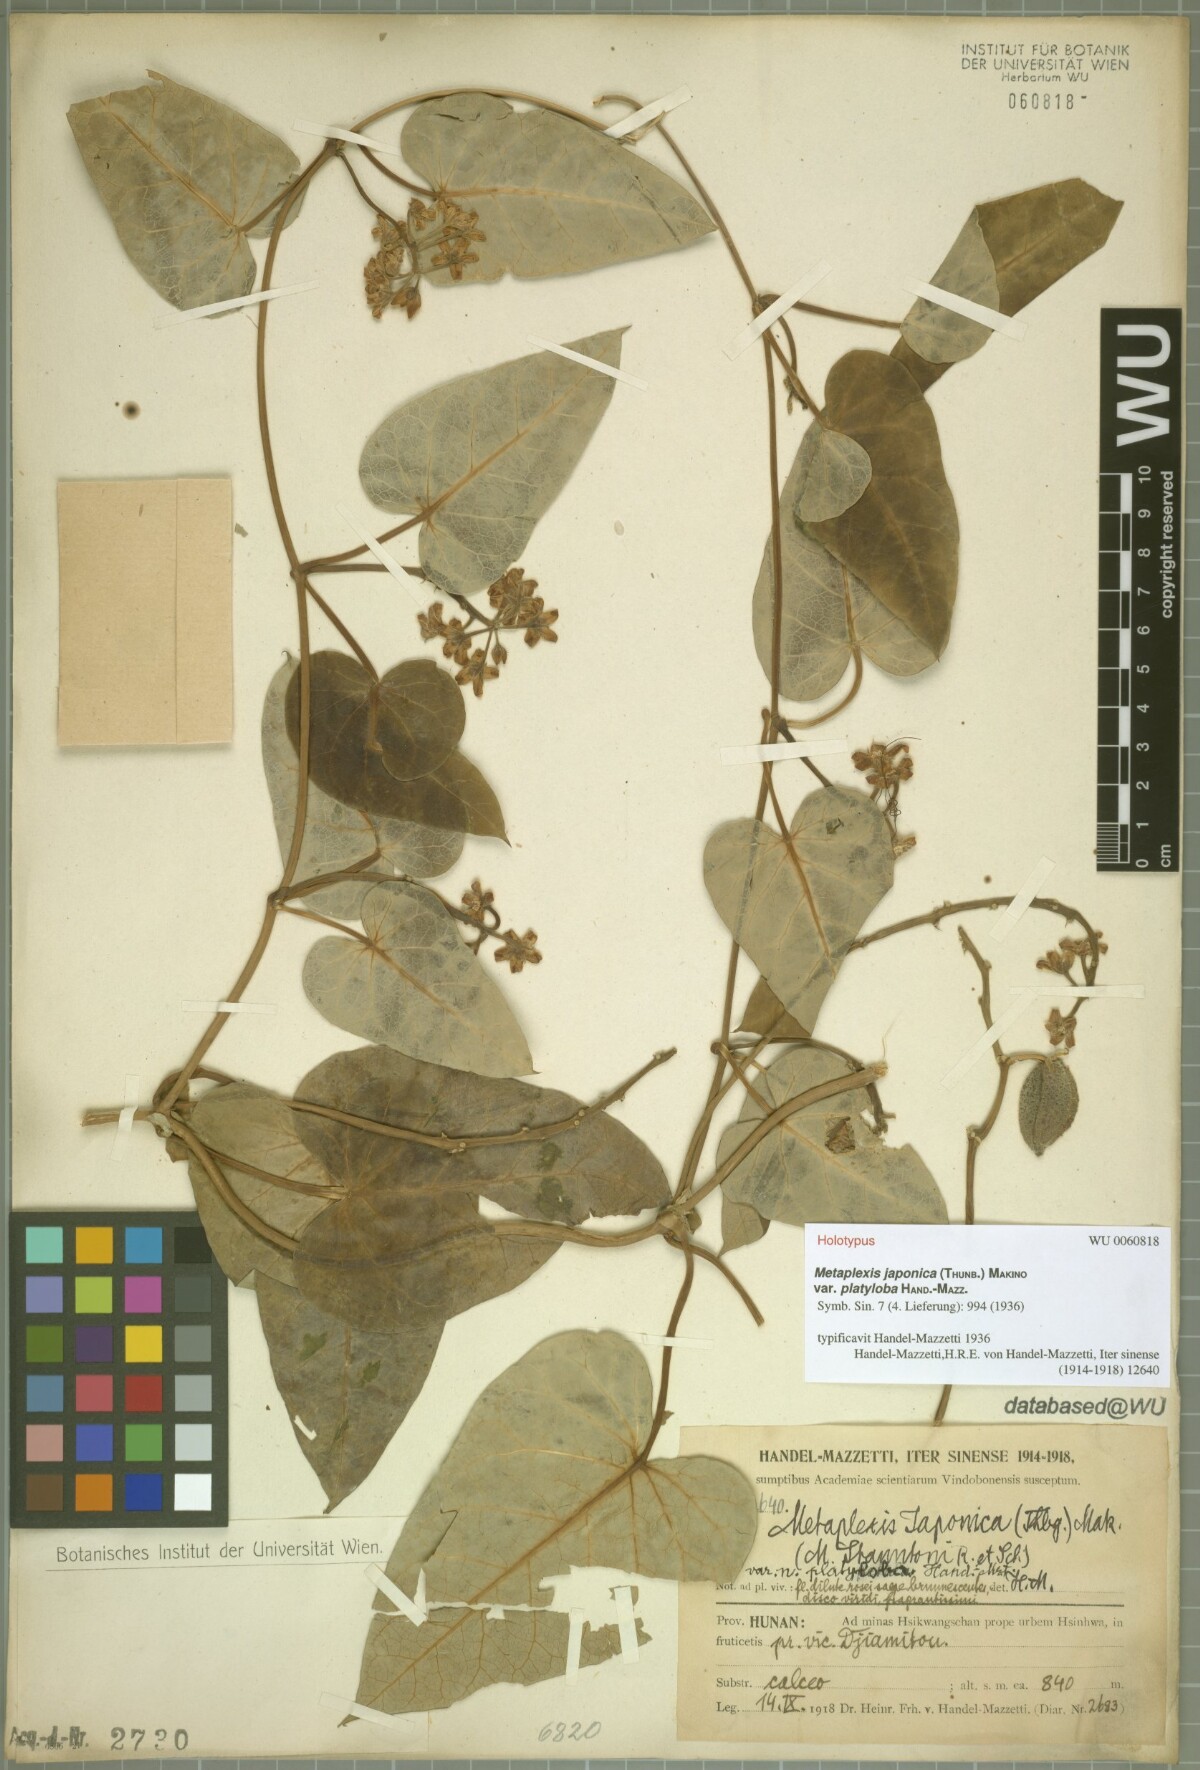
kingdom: Plantae
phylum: Tracheophyta
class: Magnoliopsida
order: Gentianales
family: Apocynaceae
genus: Cynanchum
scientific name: Cynanchum hemsleyanum
